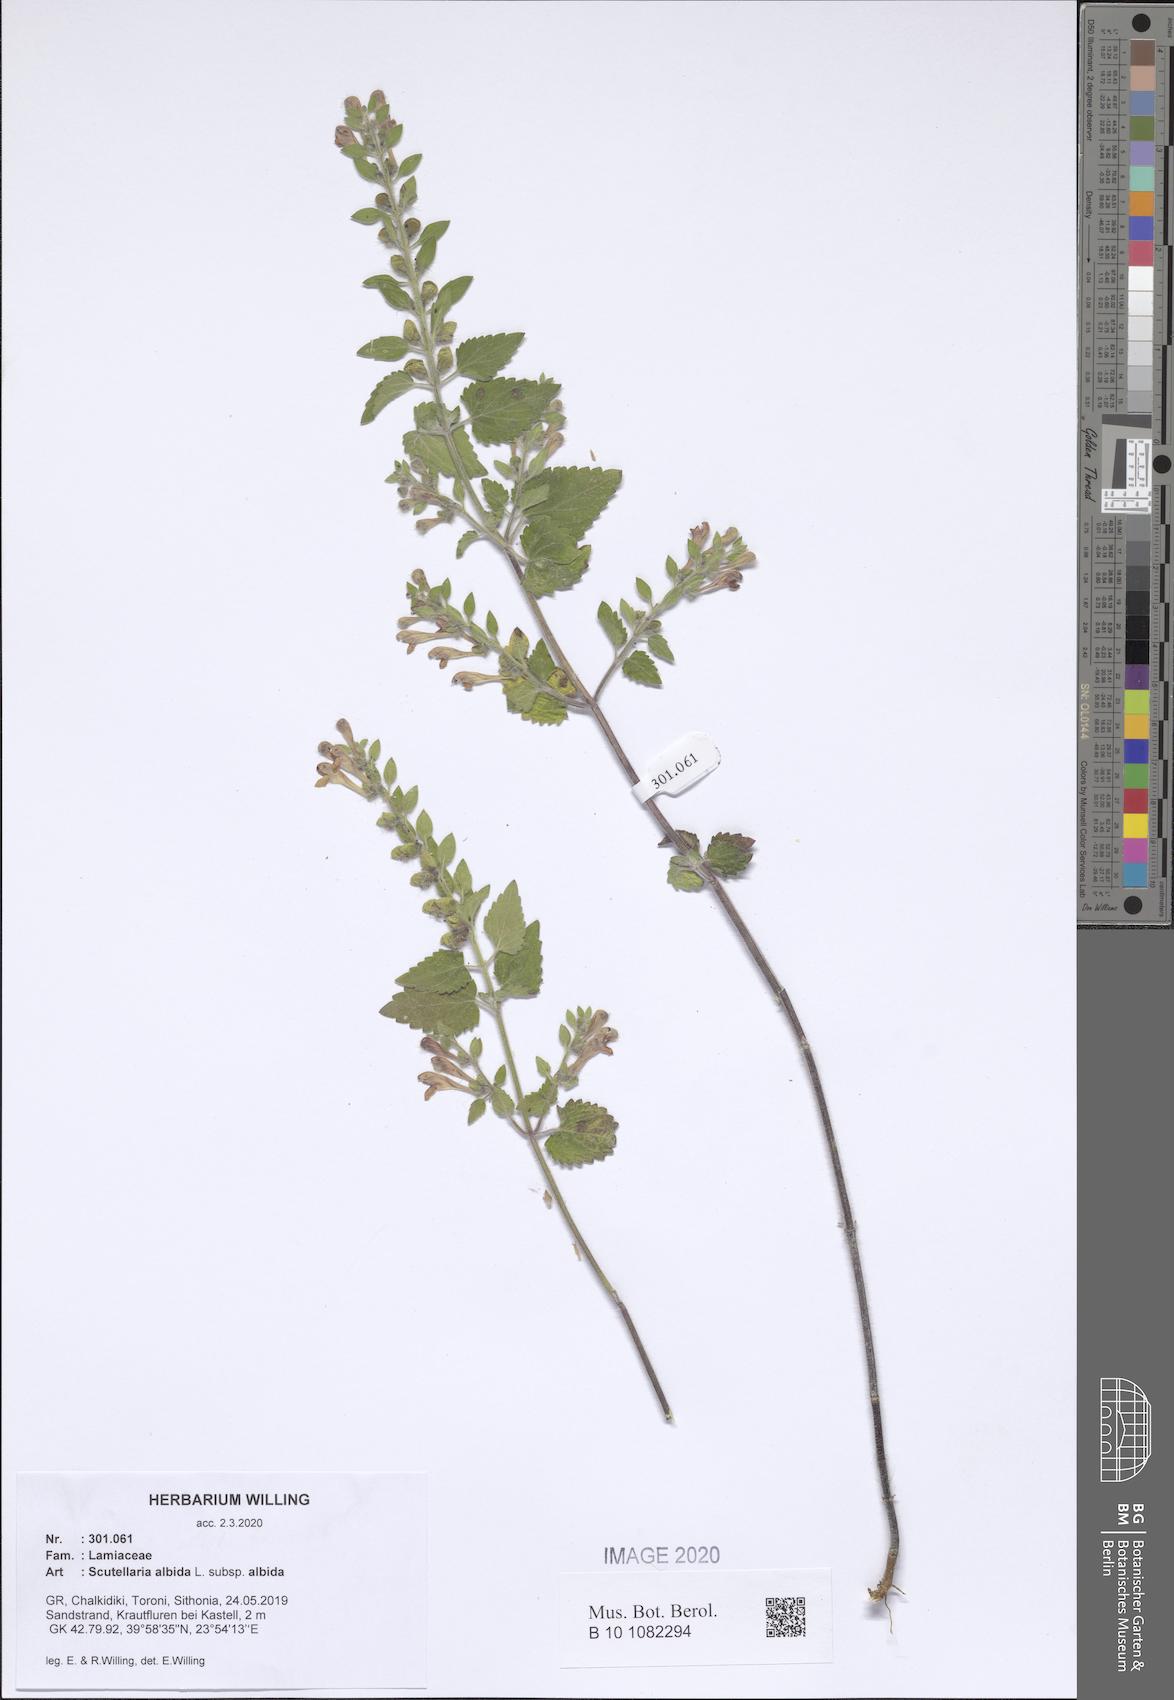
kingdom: Plantae
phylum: Tracheophyta
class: Magnoliopsida
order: Lamiales
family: Lamiaceae
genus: Scutellaria
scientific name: Scutellaria albida
